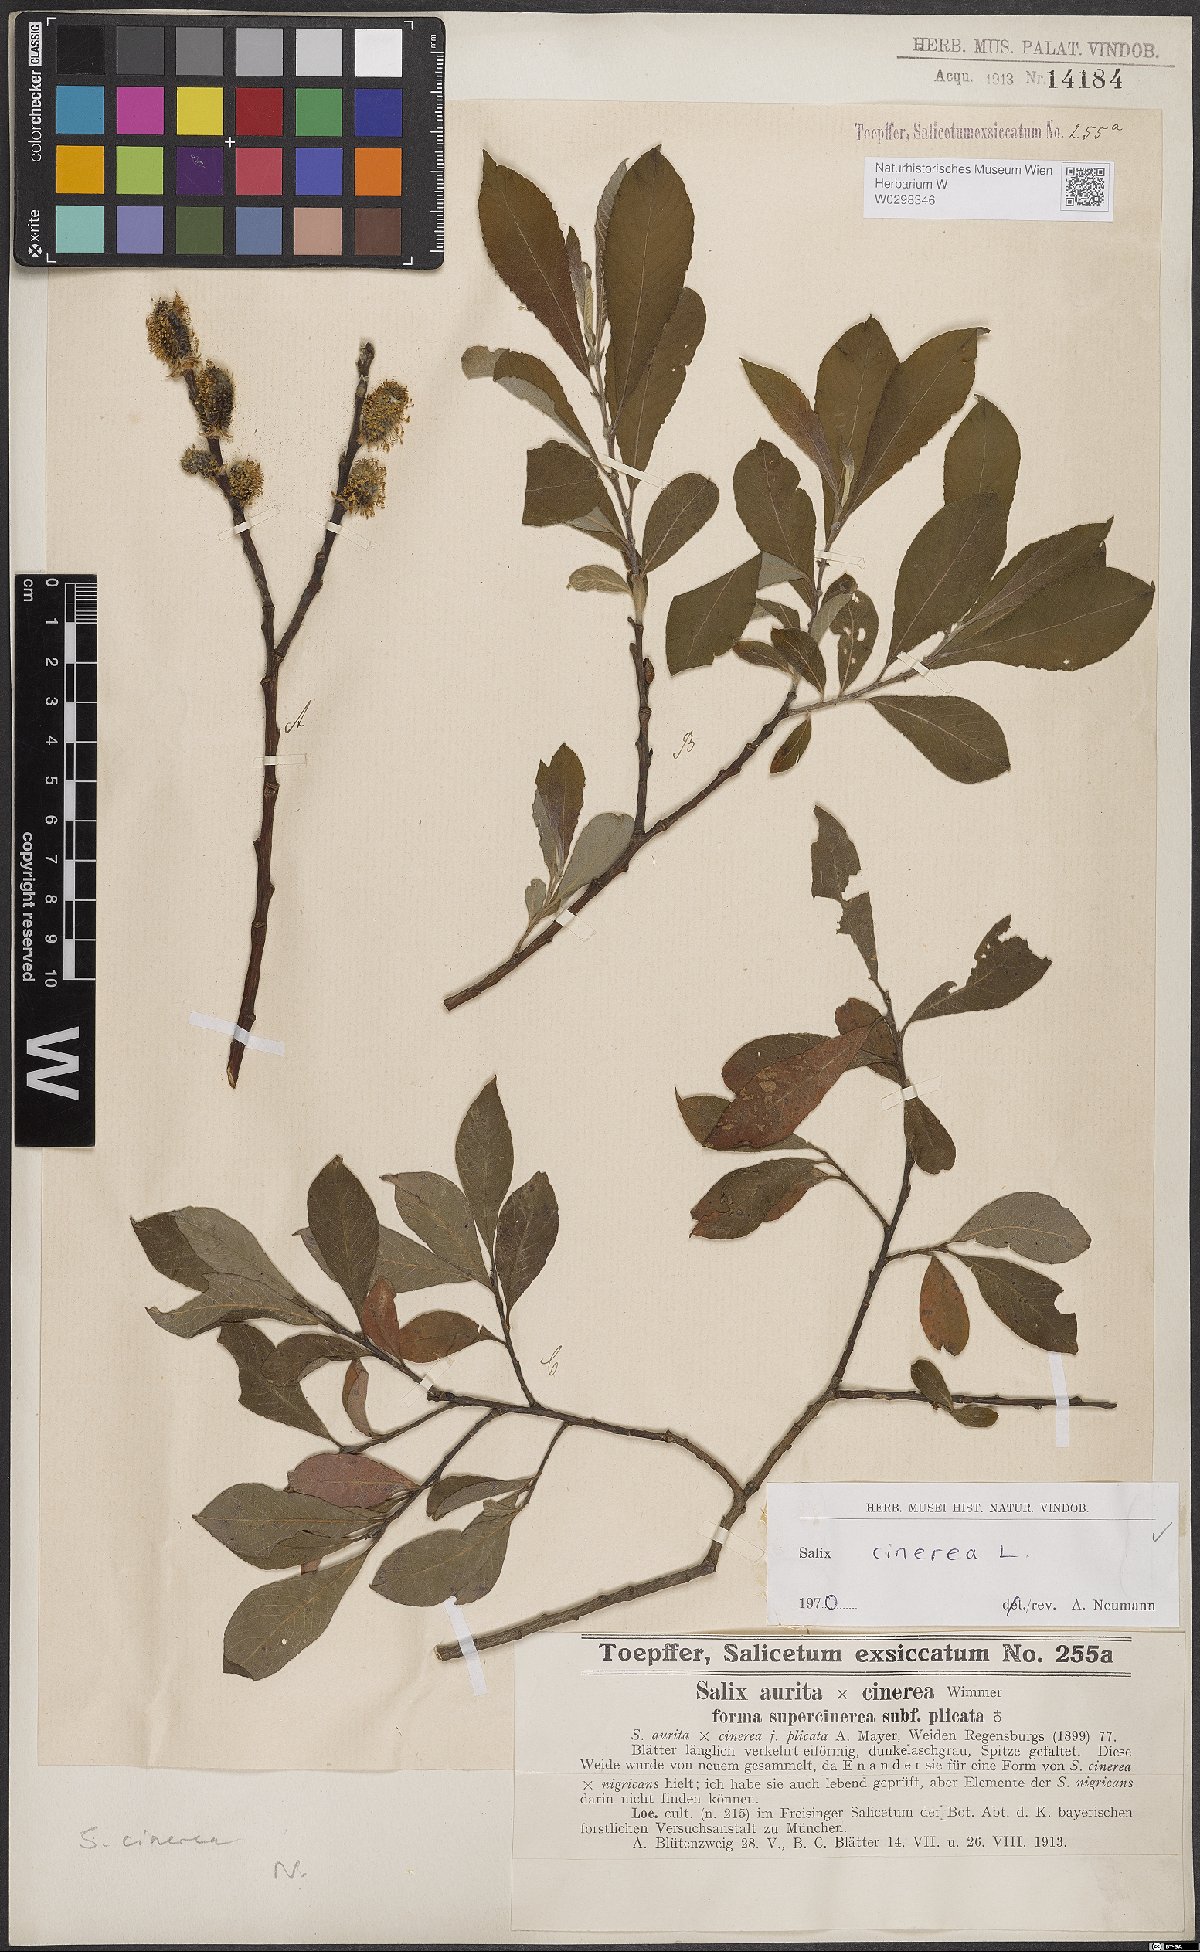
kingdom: Plantae
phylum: Tracheophyta
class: Magnoliopsida
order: Malpighiales
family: Salicaceae
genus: Salix
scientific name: Salix cinerea
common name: Common sallow
